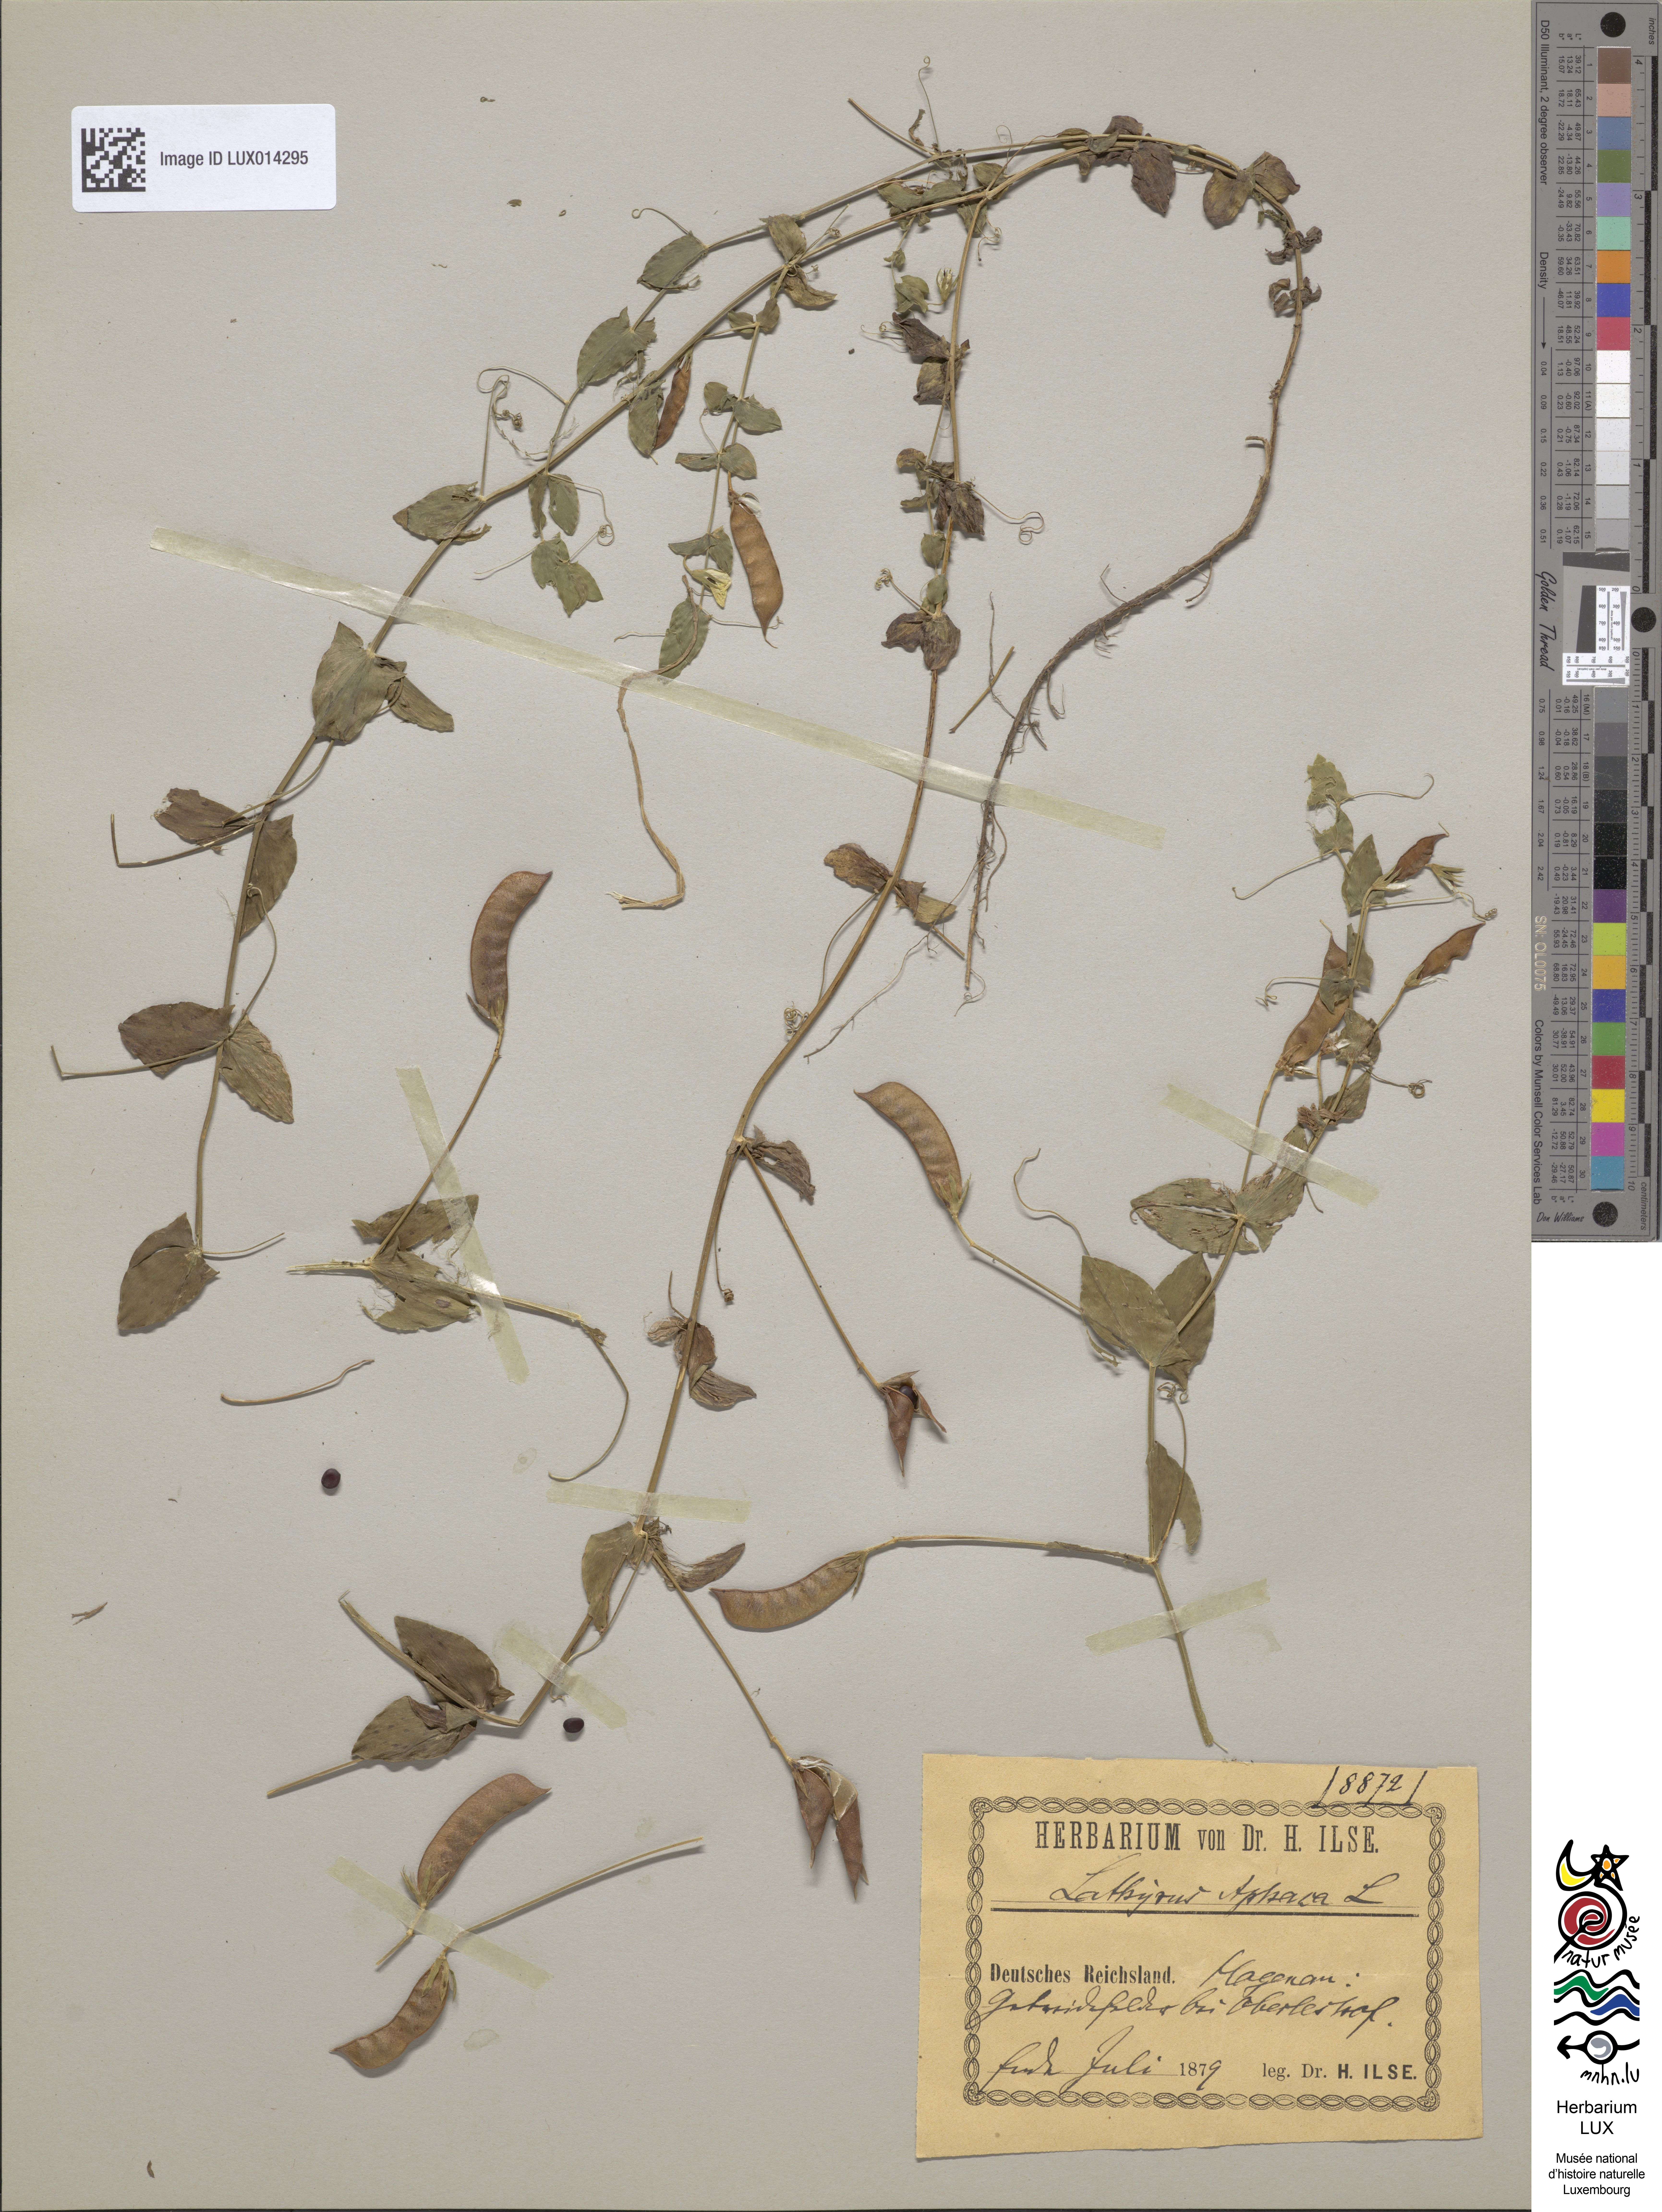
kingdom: Plantae
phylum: Tracheophyta
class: Magnoliopsida
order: Fabales
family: Fabaceae
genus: Lathyrus
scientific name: Lathyrus aphaca
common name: Yellow vetchling
